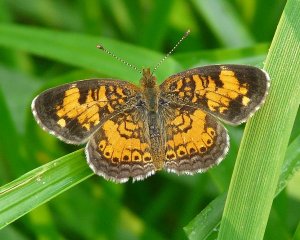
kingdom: Animalia
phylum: Arthropoda
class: Insecta
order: Lepidoptera
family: Nymphalidae
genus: Phyciodes
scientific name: Phyciodes tharos
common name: Pearl Crescent
